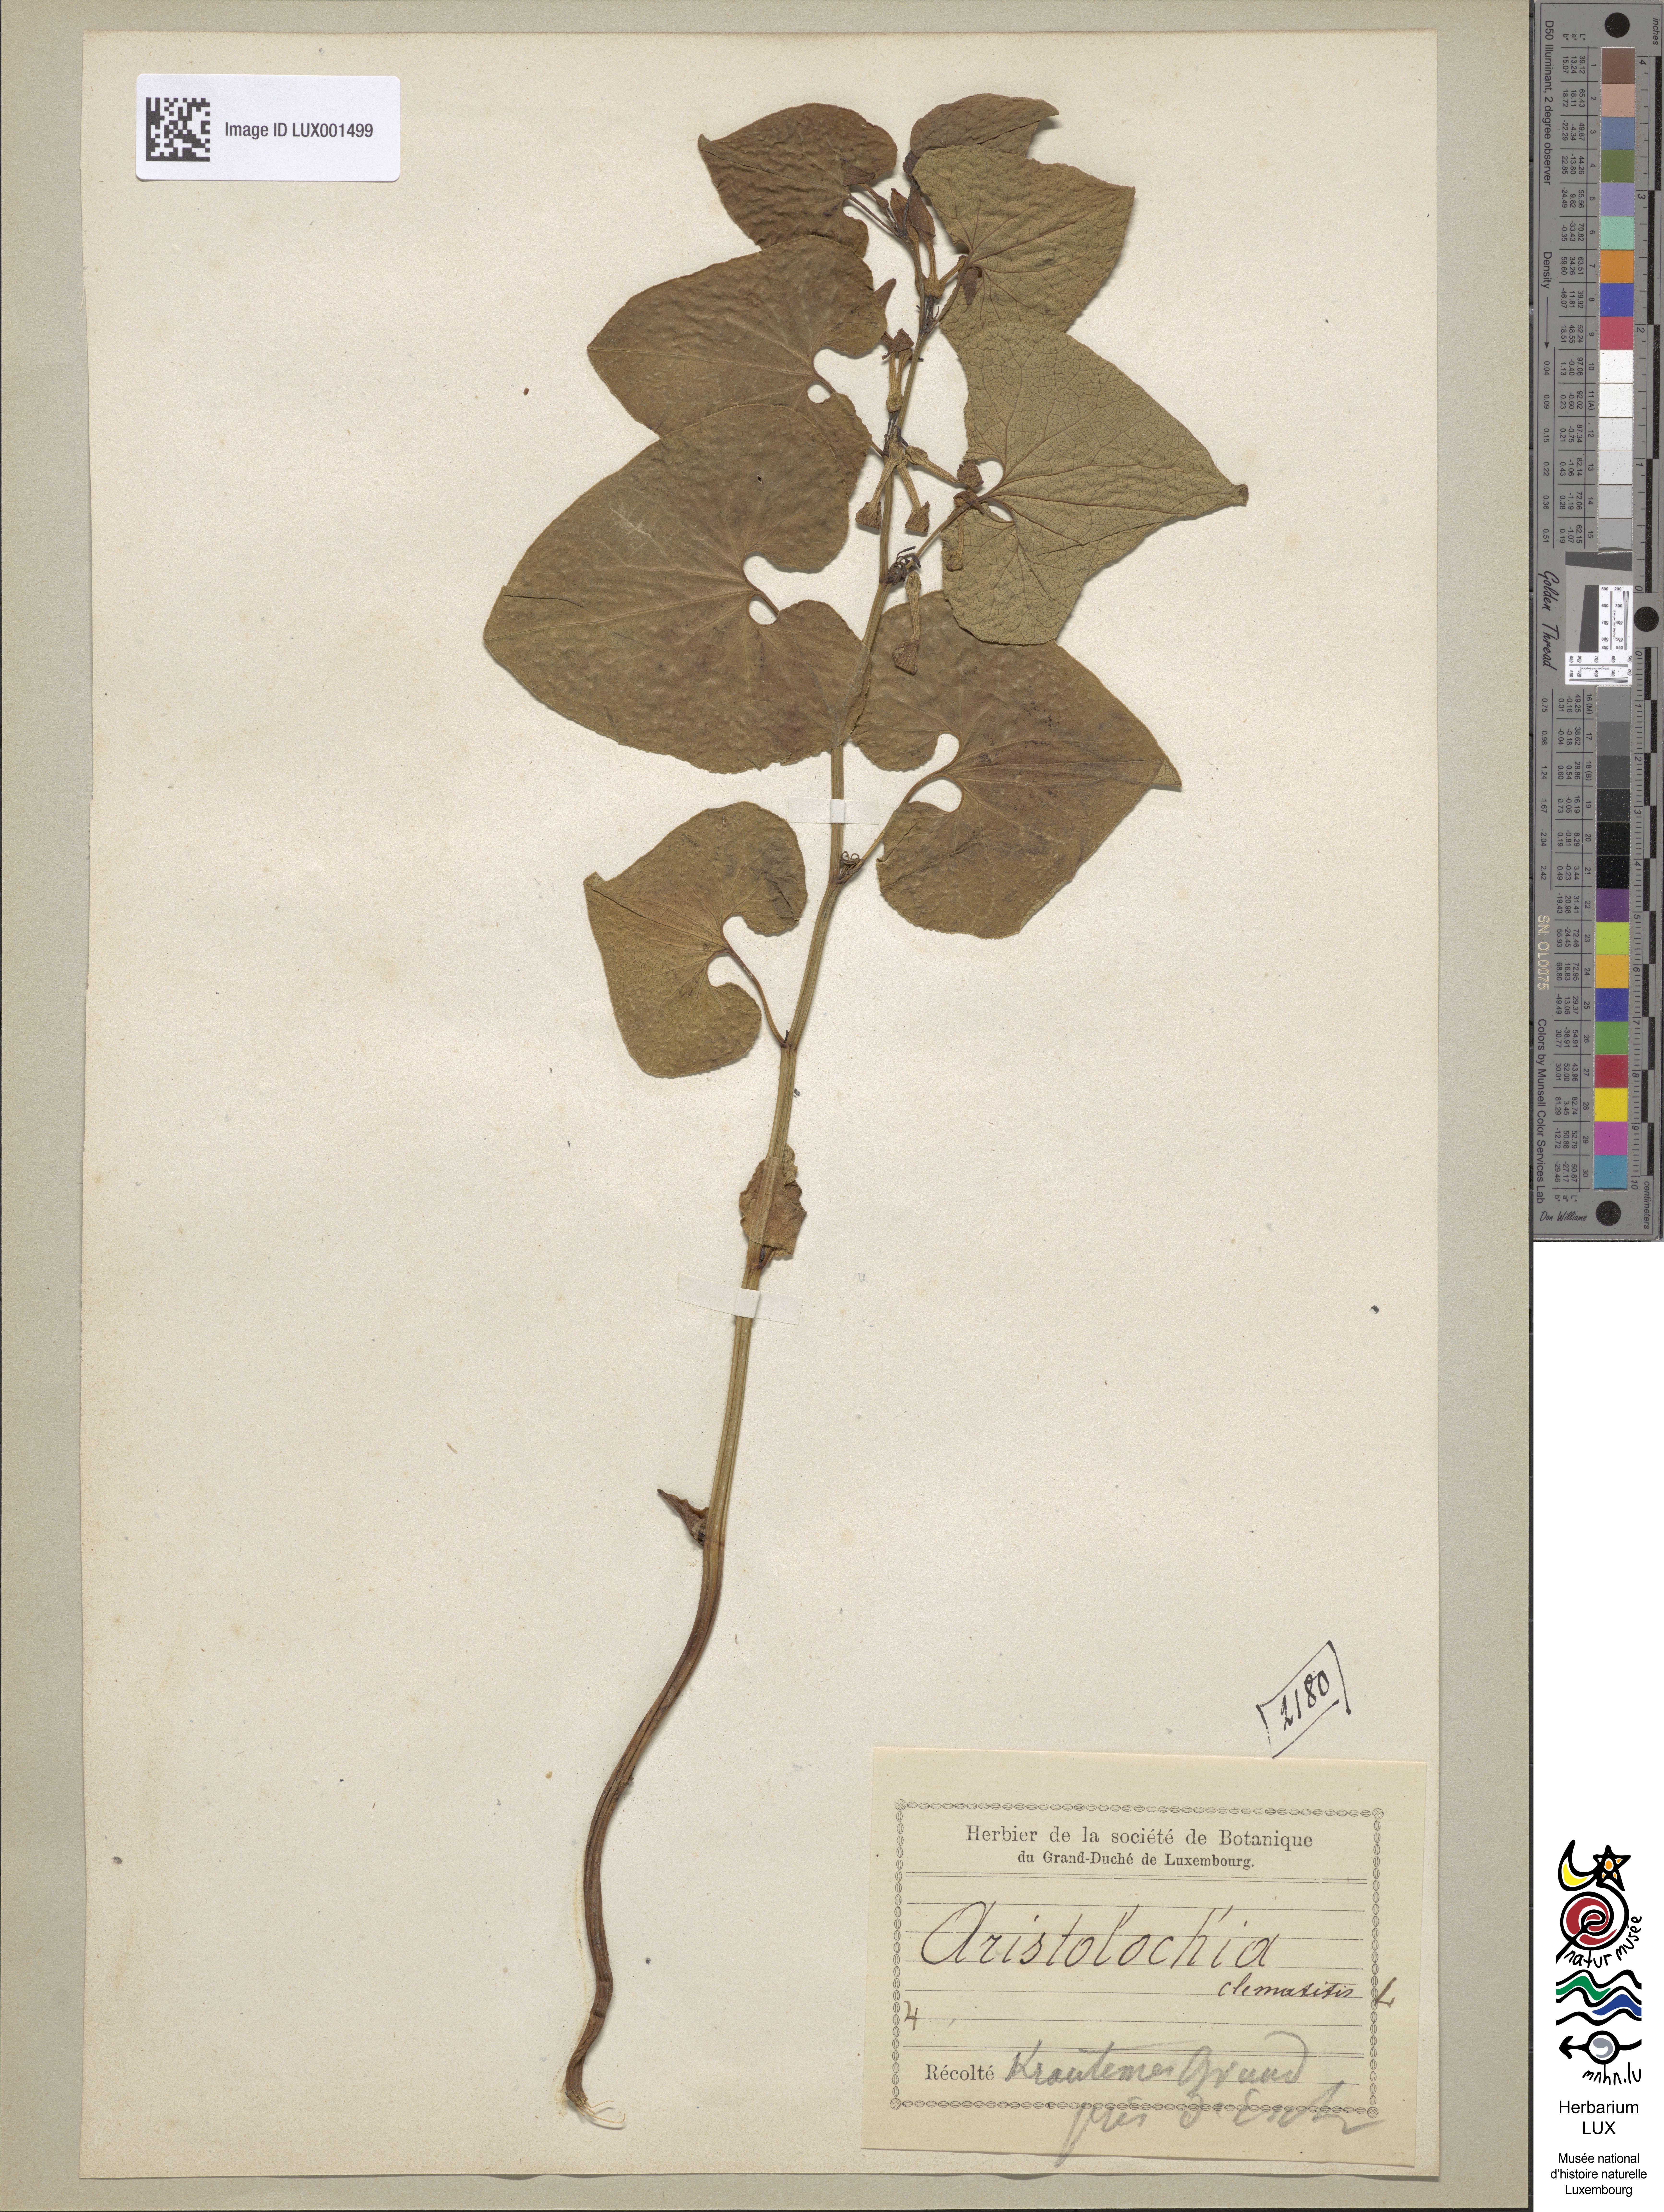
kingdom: Plantae
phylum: Tracheophyta
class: Magnoliopsida
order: Piperales
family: Aristolochiaceae
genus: Aristolochia
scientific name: Aristolochia clematitis
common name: Birthwort
